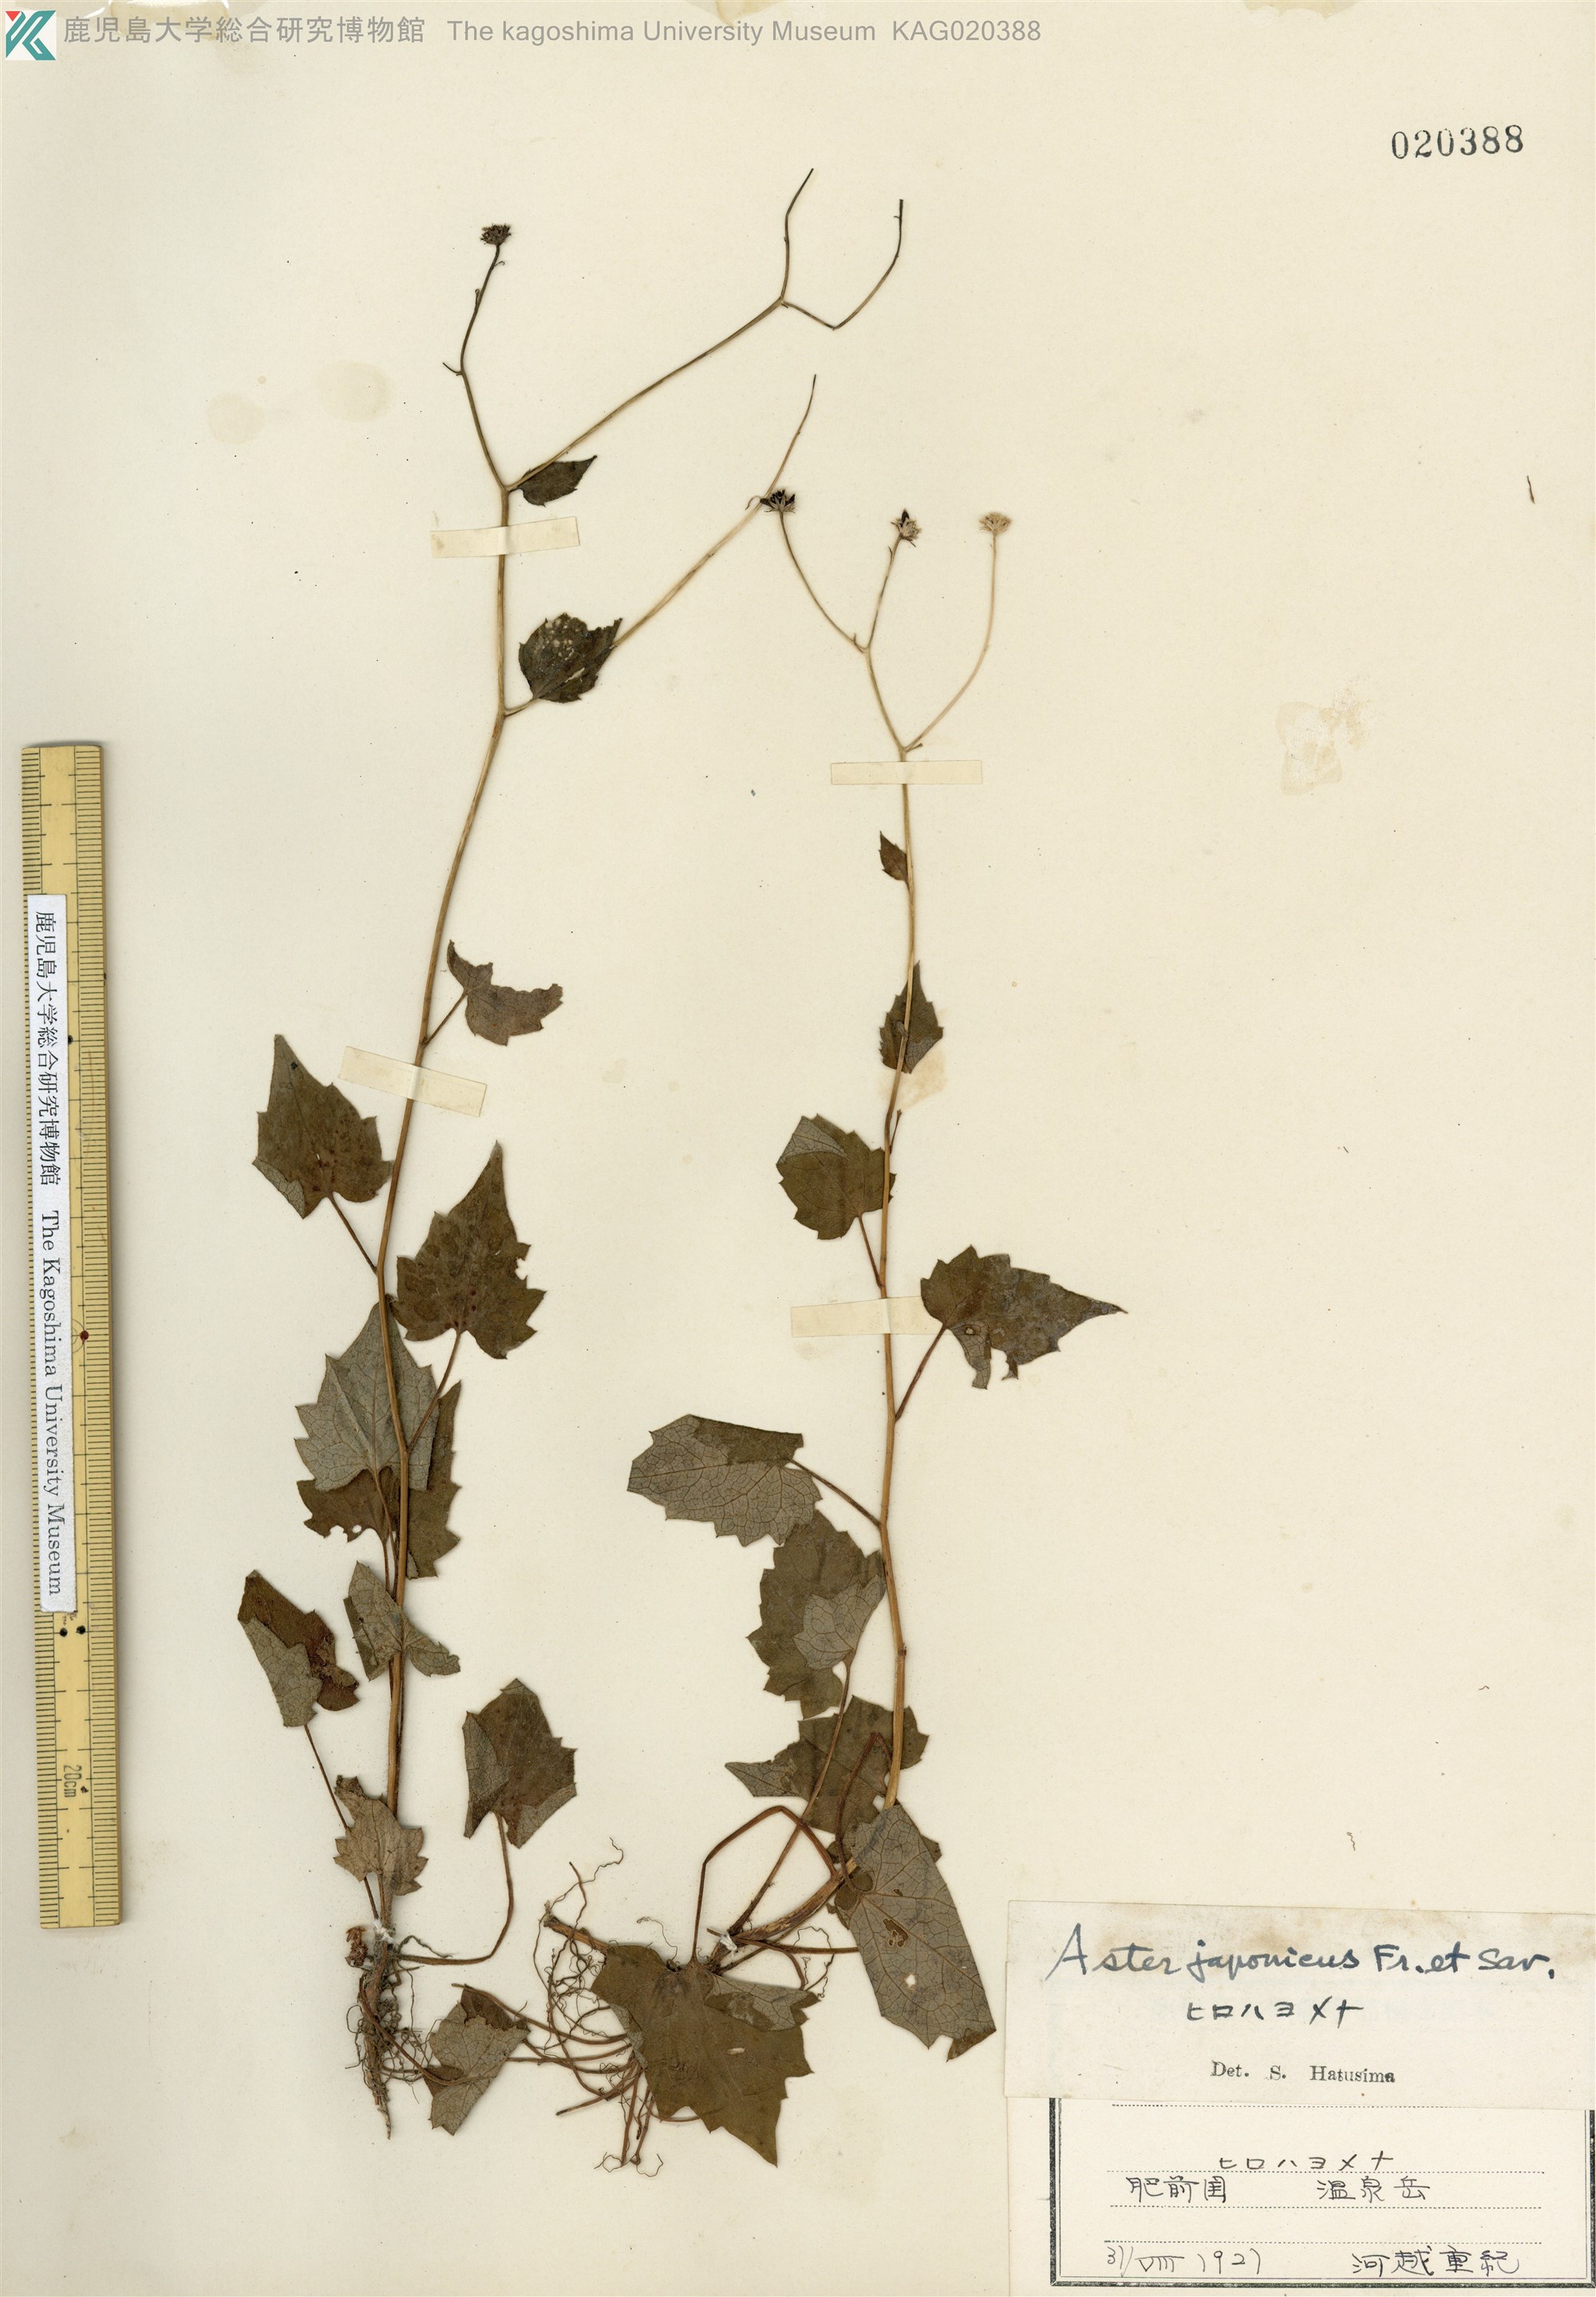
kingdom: Plantae
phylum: Tracheophyta
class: Magnoliopsida
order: Asterales
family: Asteraceae
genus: Cardiagyris
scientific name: Cardiagyris miquelianus
